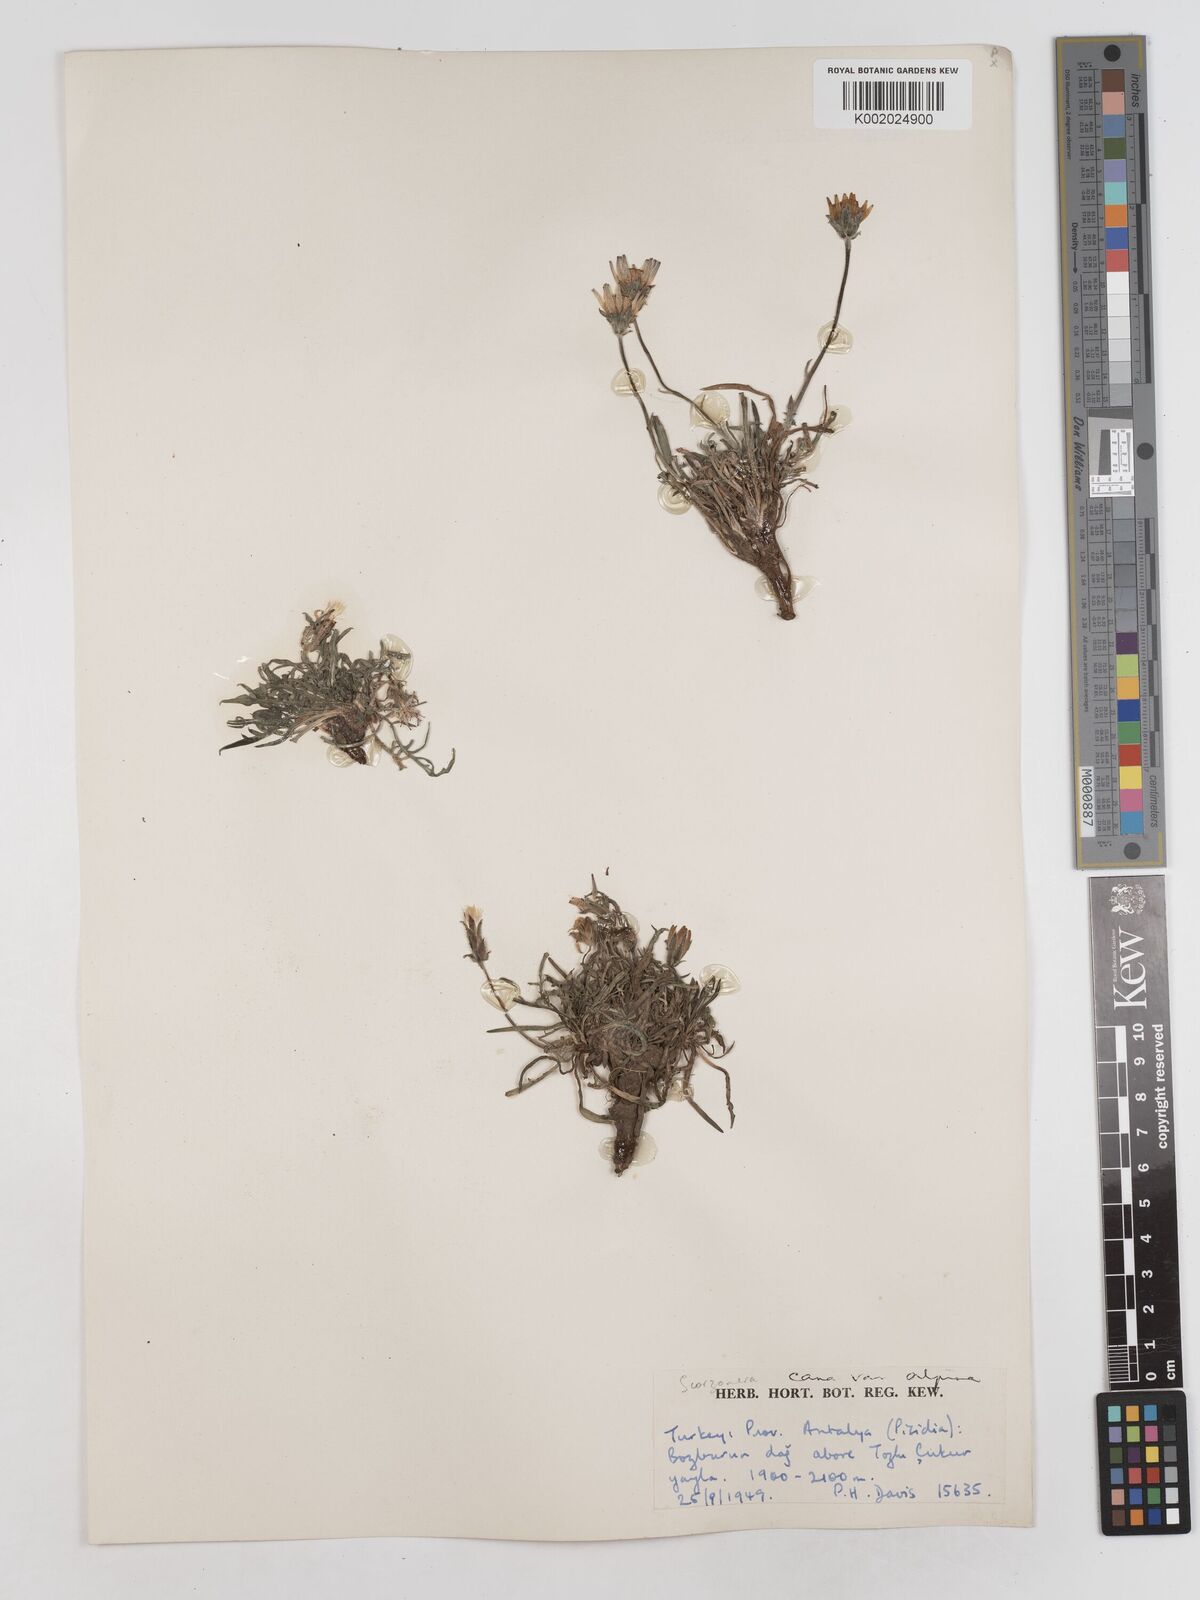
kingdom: Plantae
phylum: Tracheophyta
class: Magnoliopsida
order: Asterales
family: Asteraceae
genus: Scorzonera
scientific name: Scorzonera alpigena
